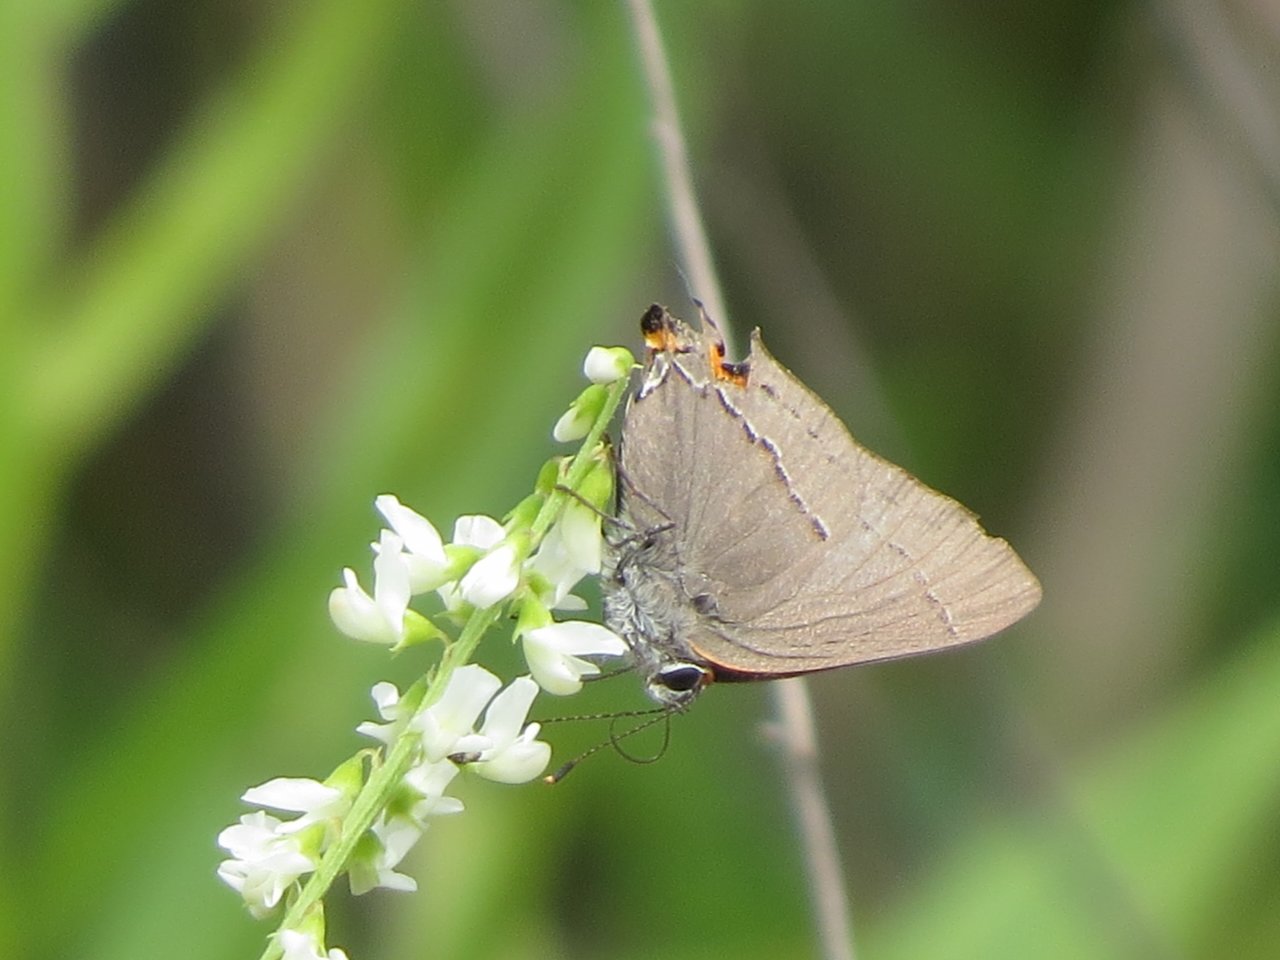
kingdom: Animalia
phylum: Arthropoda
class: Insecta
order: Lepidoptera
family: Lycaenidae
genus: Strymon
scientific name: Strymon melinus
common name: Gray Hairstreak
